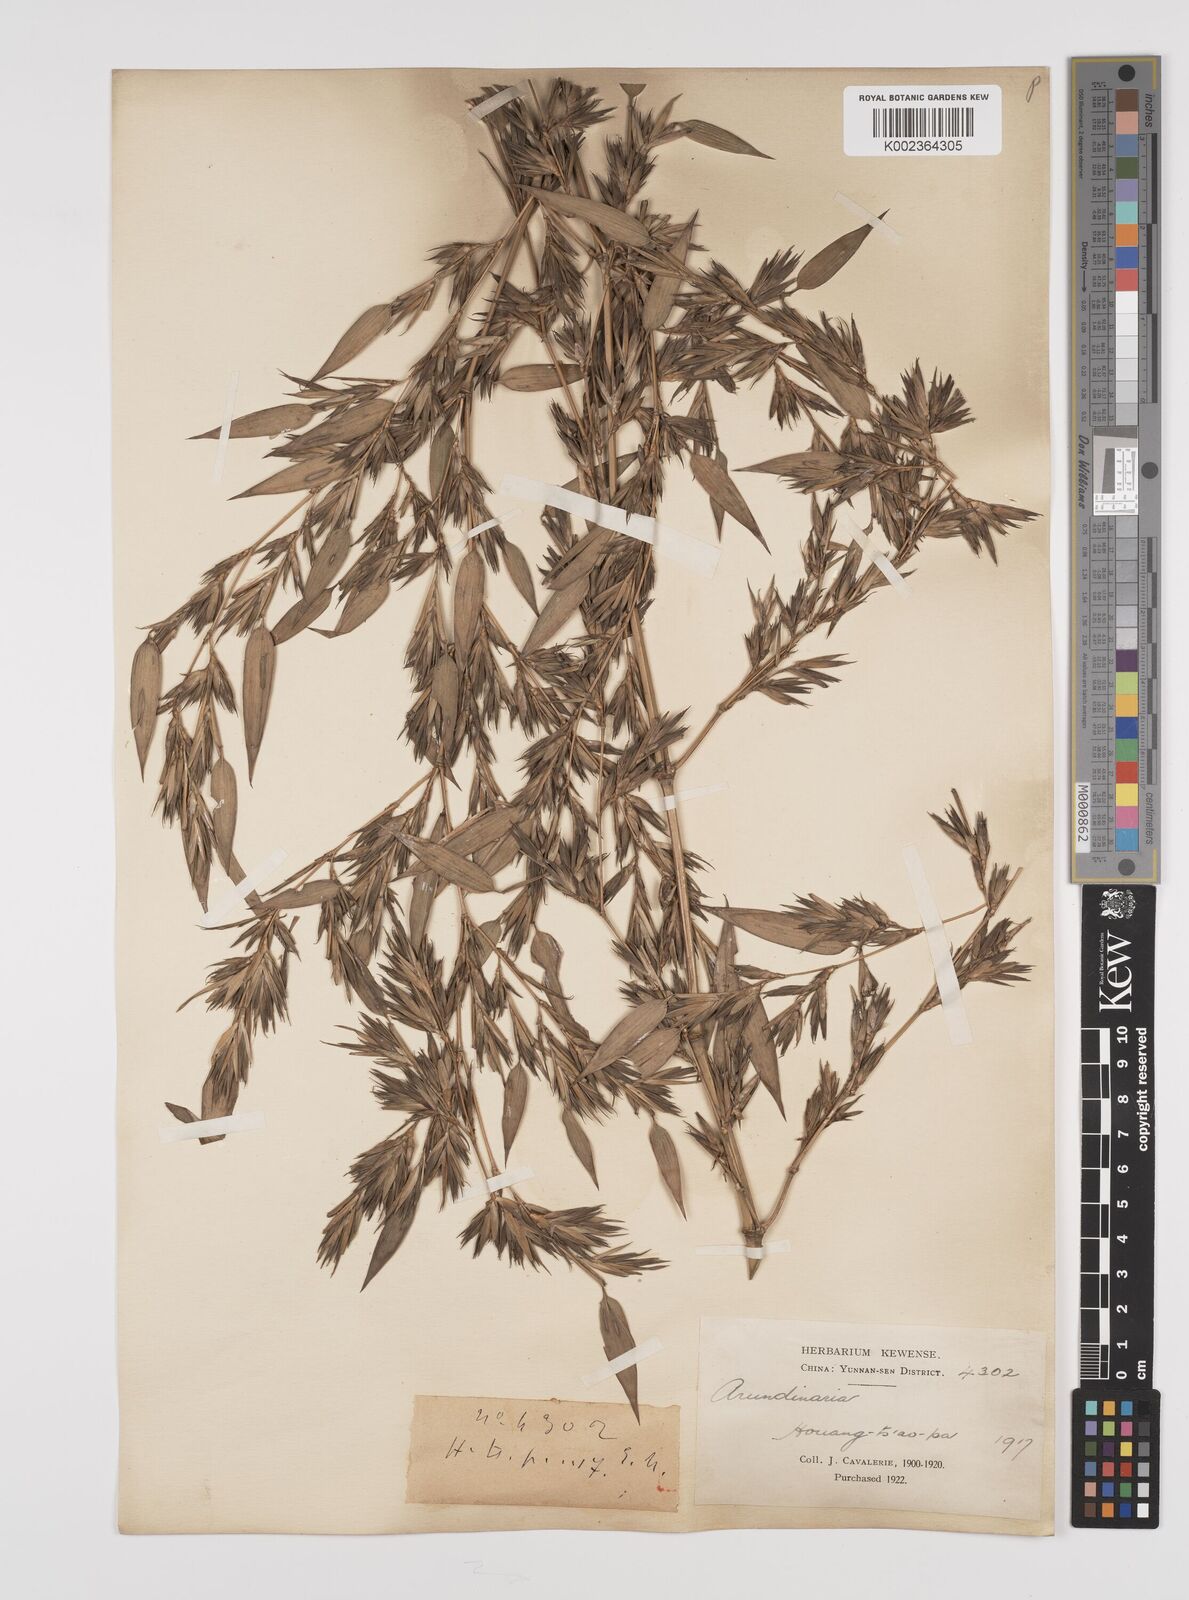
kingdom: Plantae
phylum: Tracheophyta
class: Liliopsida
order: Poales
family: Poaceae
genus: Phyllostachys
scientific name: Phyllostachys
